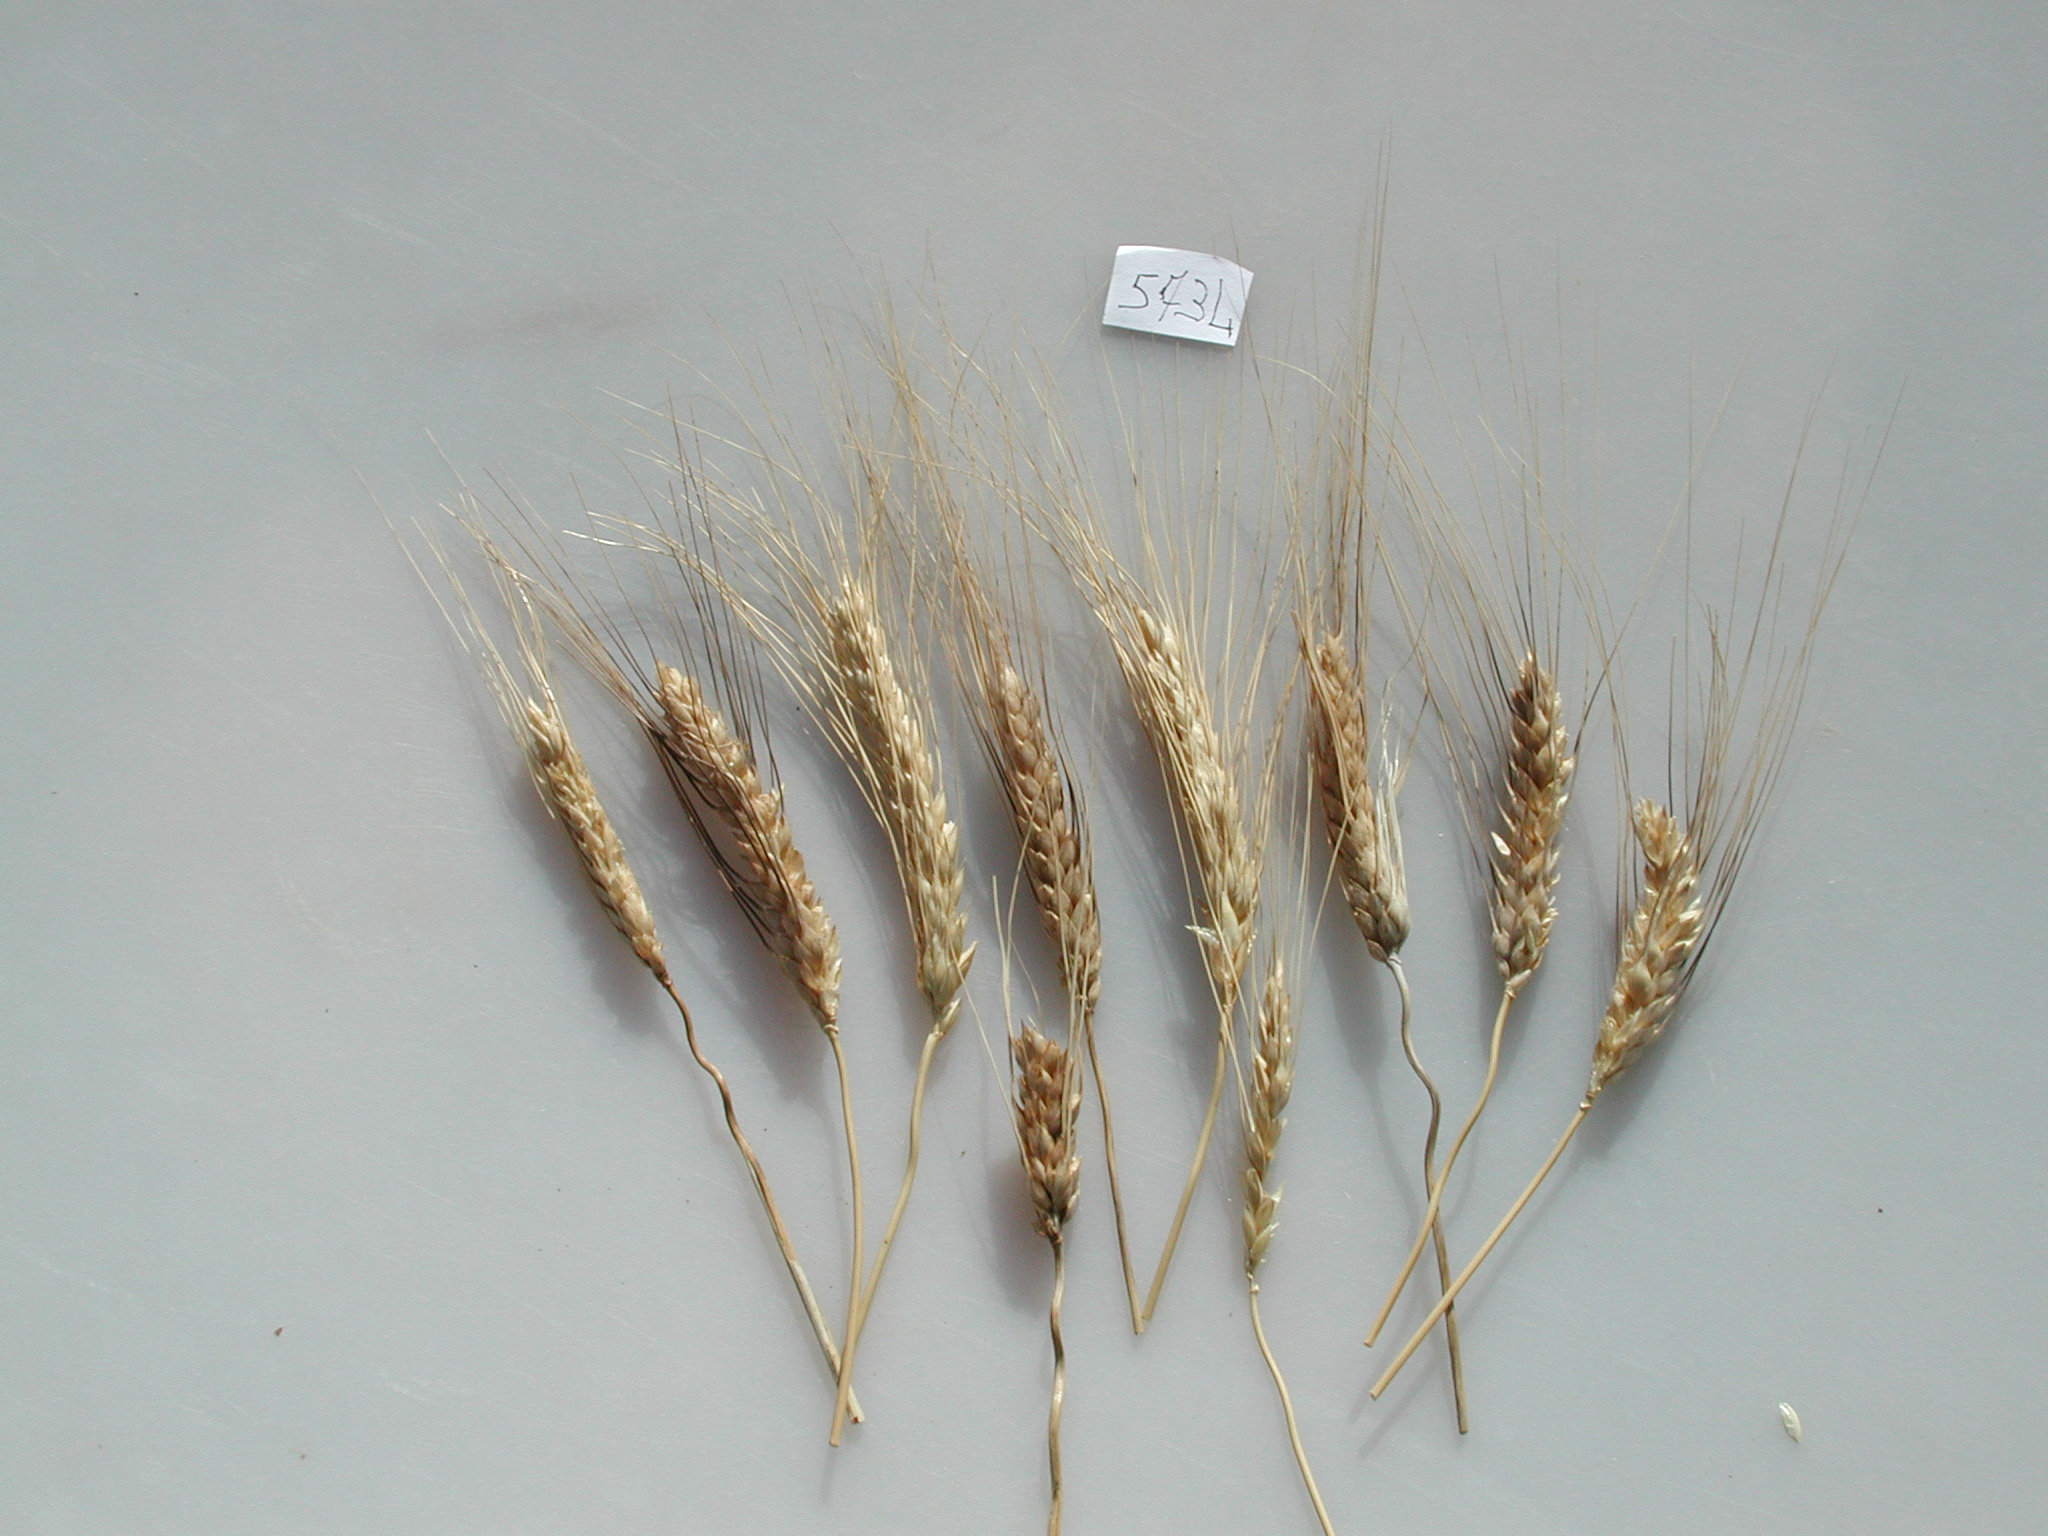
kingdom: Plantae
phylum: Tracheophyta
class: Liliopsida
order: Poales
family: Poaceae
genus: Triticum
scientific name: Triticum turgidum
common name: Wheat
